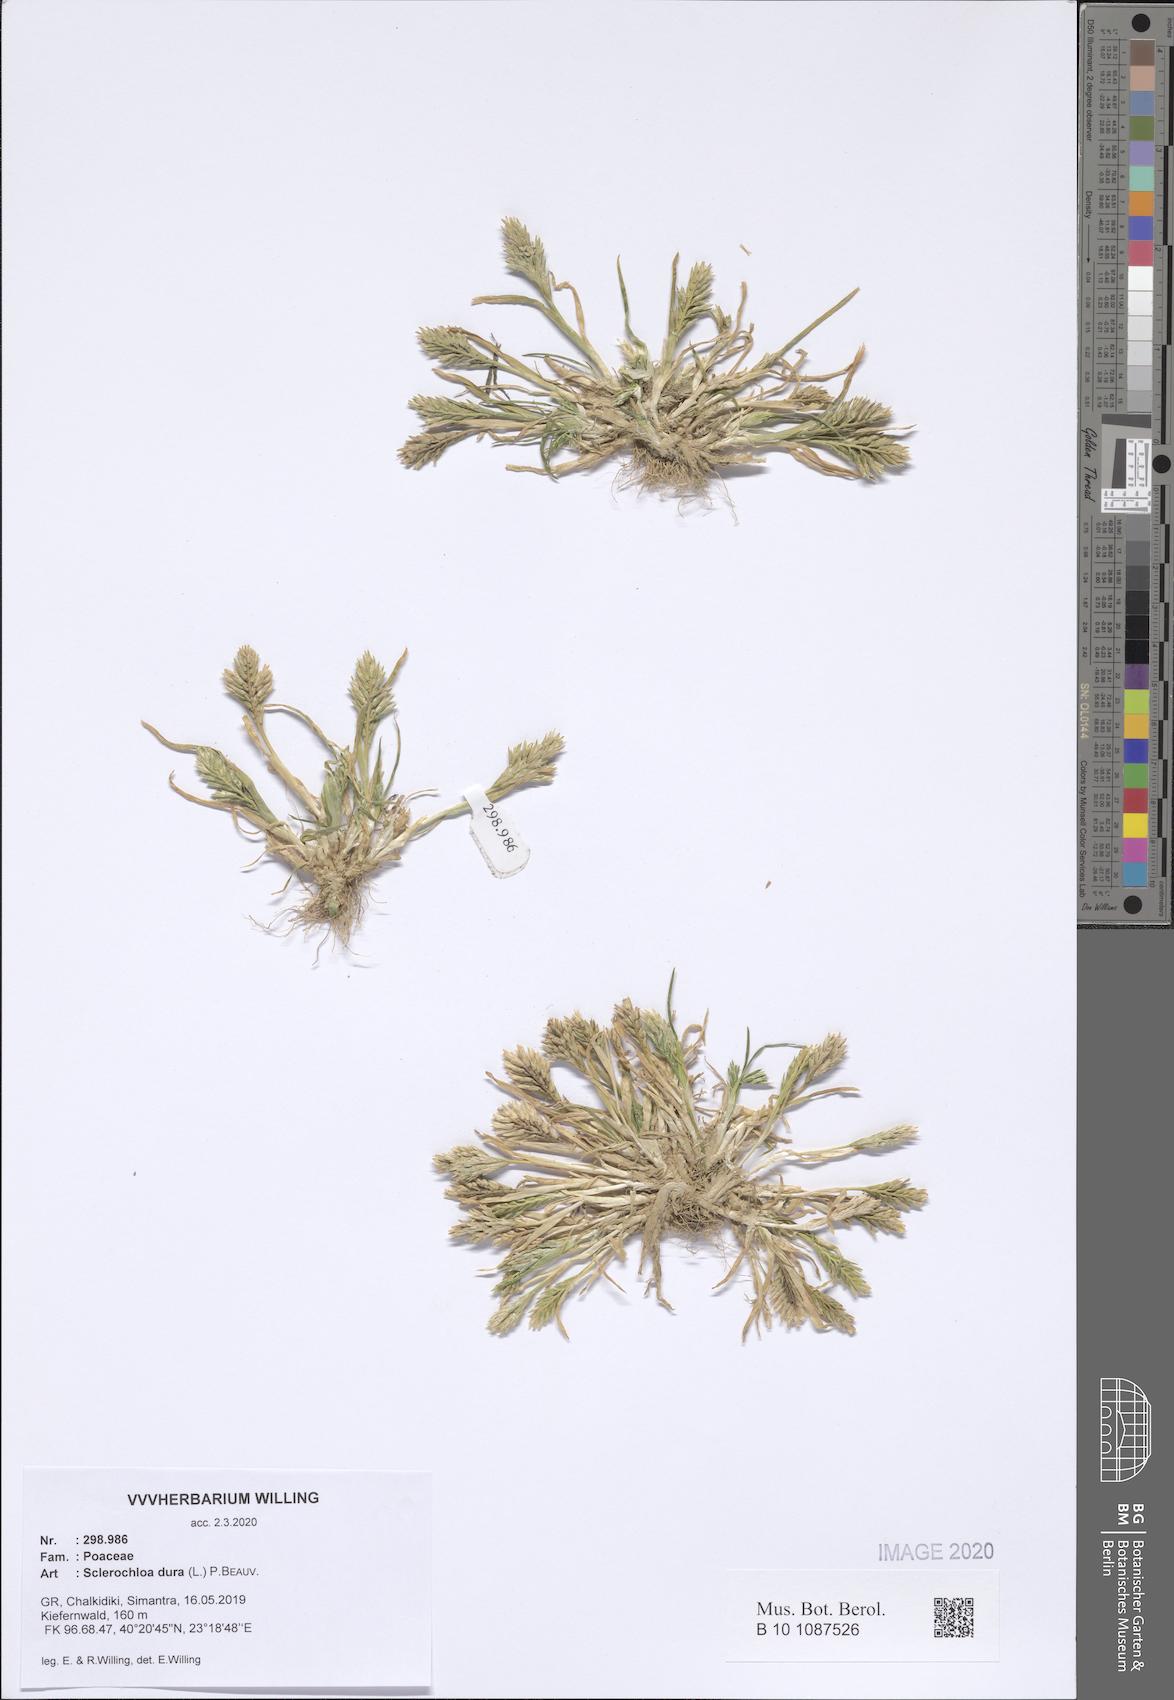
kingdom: Plantae
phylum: Tracheophyta
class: Liliopsida
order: Poales
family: Poaceae
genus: Sclerochloa
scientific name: Sclerochloa dura
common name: Common hardgrass
